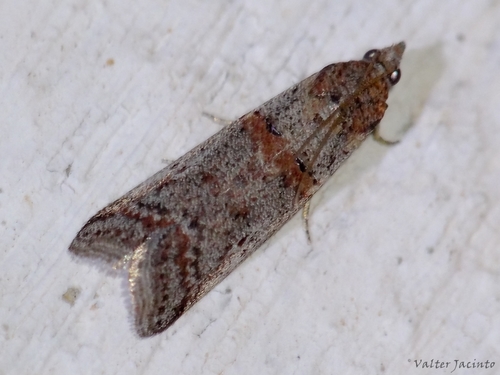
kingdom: Animalia
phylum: Arthropoda
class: Insecta
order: Lepidoptera
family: Pyralidae
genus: Acrobasis
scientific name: Acrobasis bithynella
